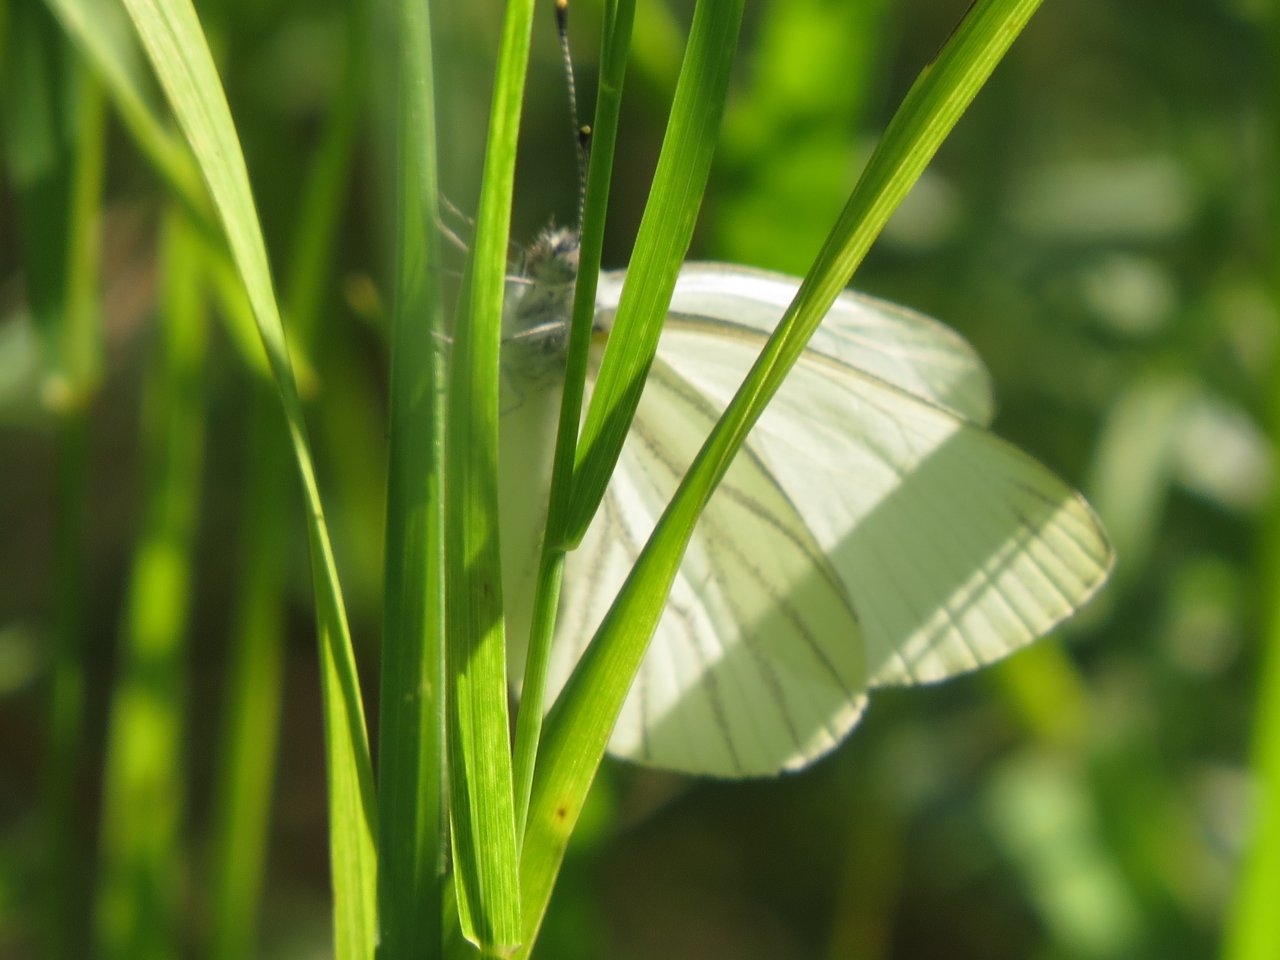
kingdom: Animalia
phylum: Arthropoda
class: Insecta
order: Lepidoptera
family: Pieridae
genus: Pieris
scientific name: Pieris oleracea
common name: Mustard White
